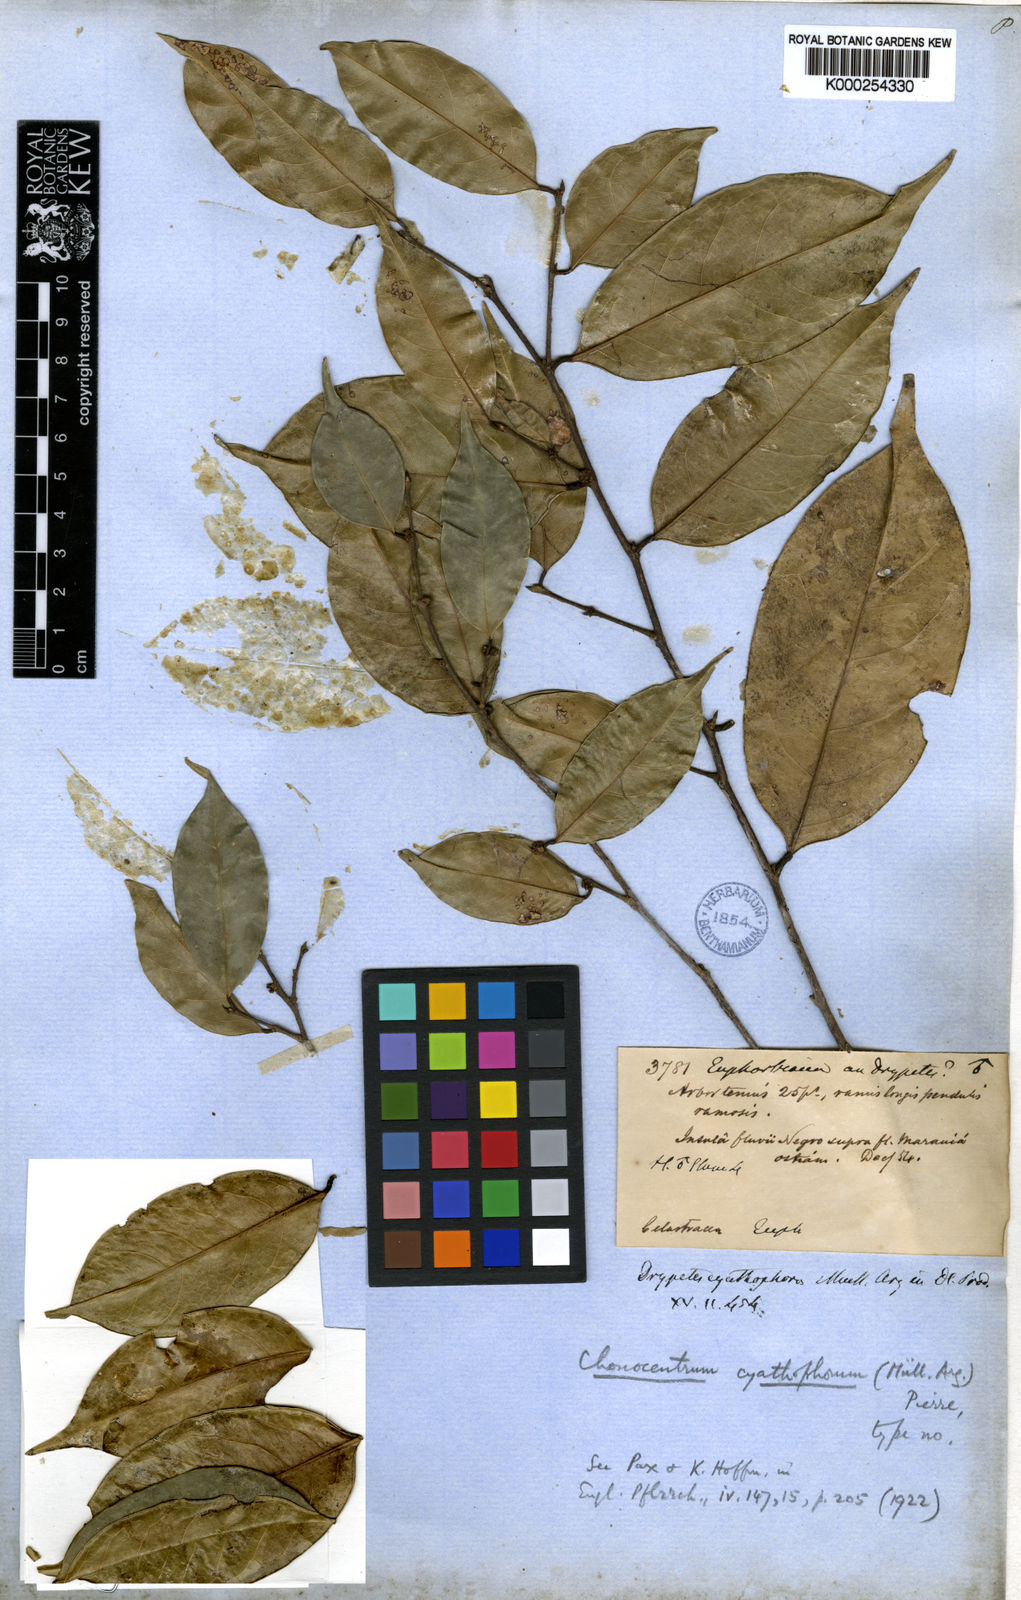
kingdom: Plantae
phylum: Tracheophyta
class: Magnoliopsida
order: Malpighiales
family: Phyllanthaceae
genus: Chonocentrum
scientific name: Chonocentrum
